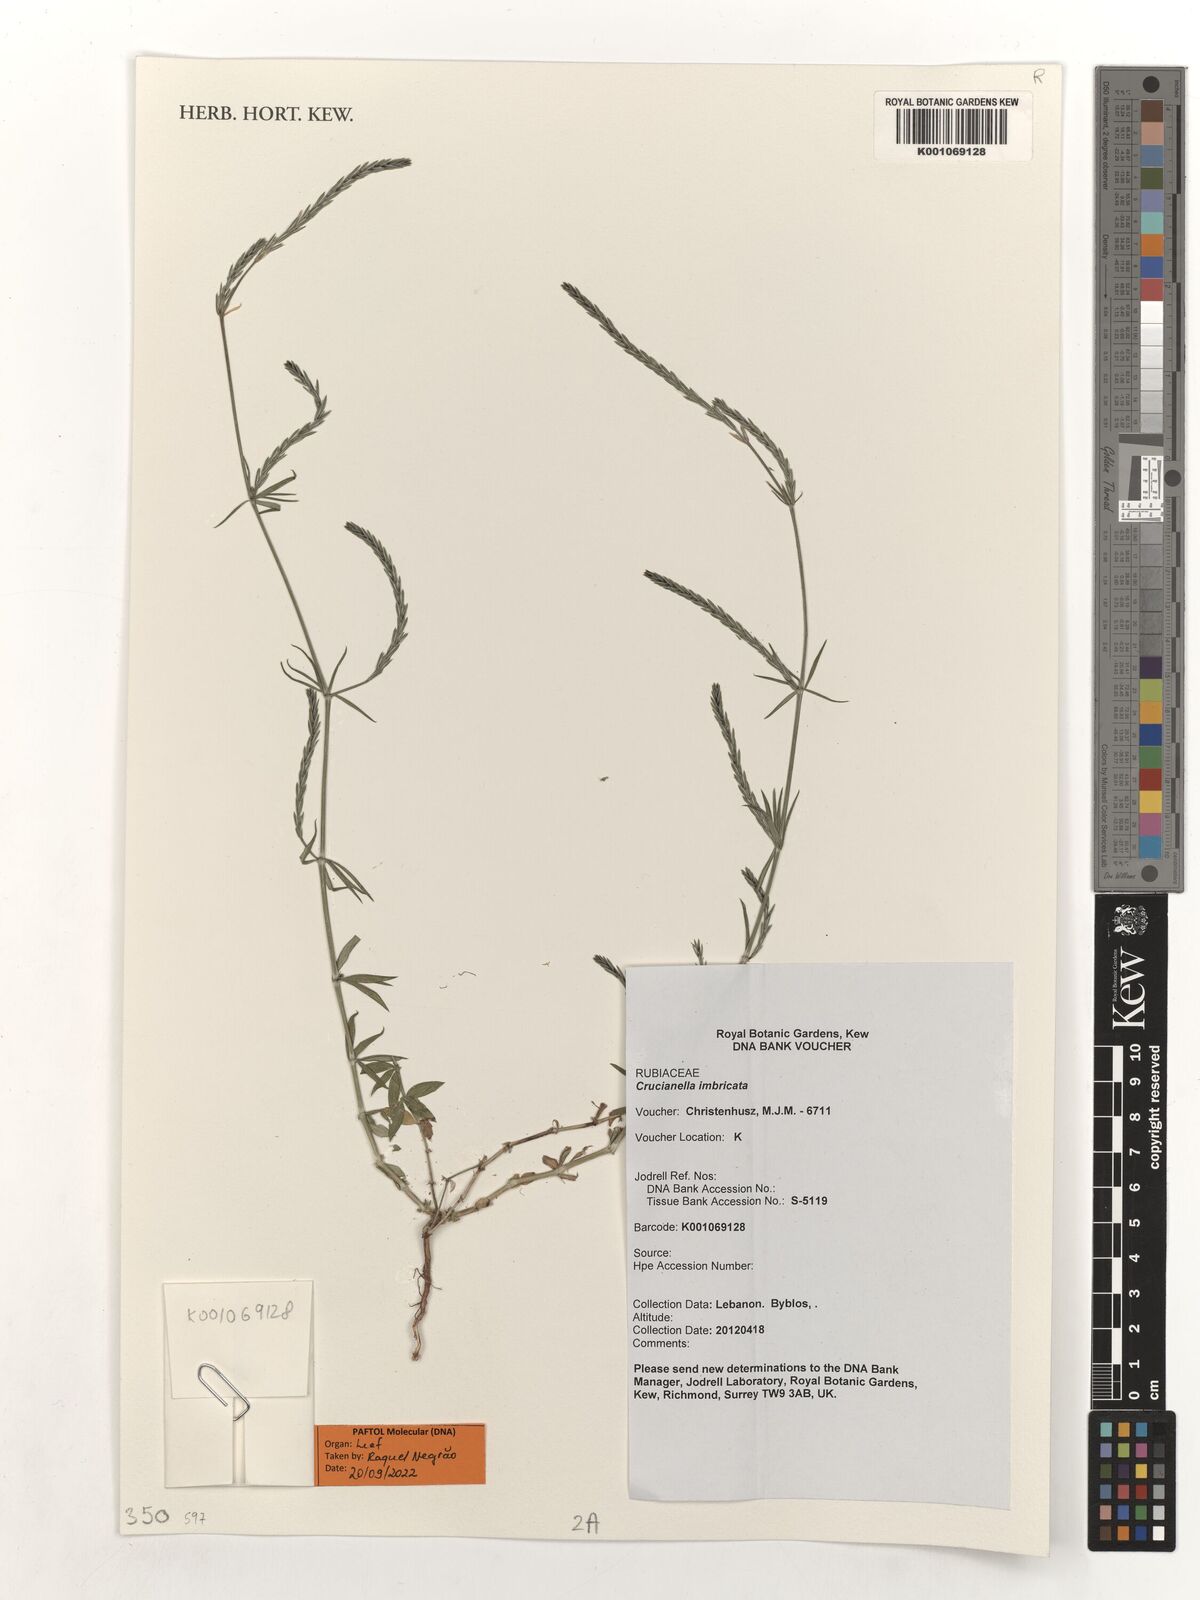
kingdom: Plantae
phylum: Tracheophyta
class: Magnoliopsida
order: Gentianales
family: Rubiaceae
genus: Crucianella
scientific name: Crucianella imbricata
